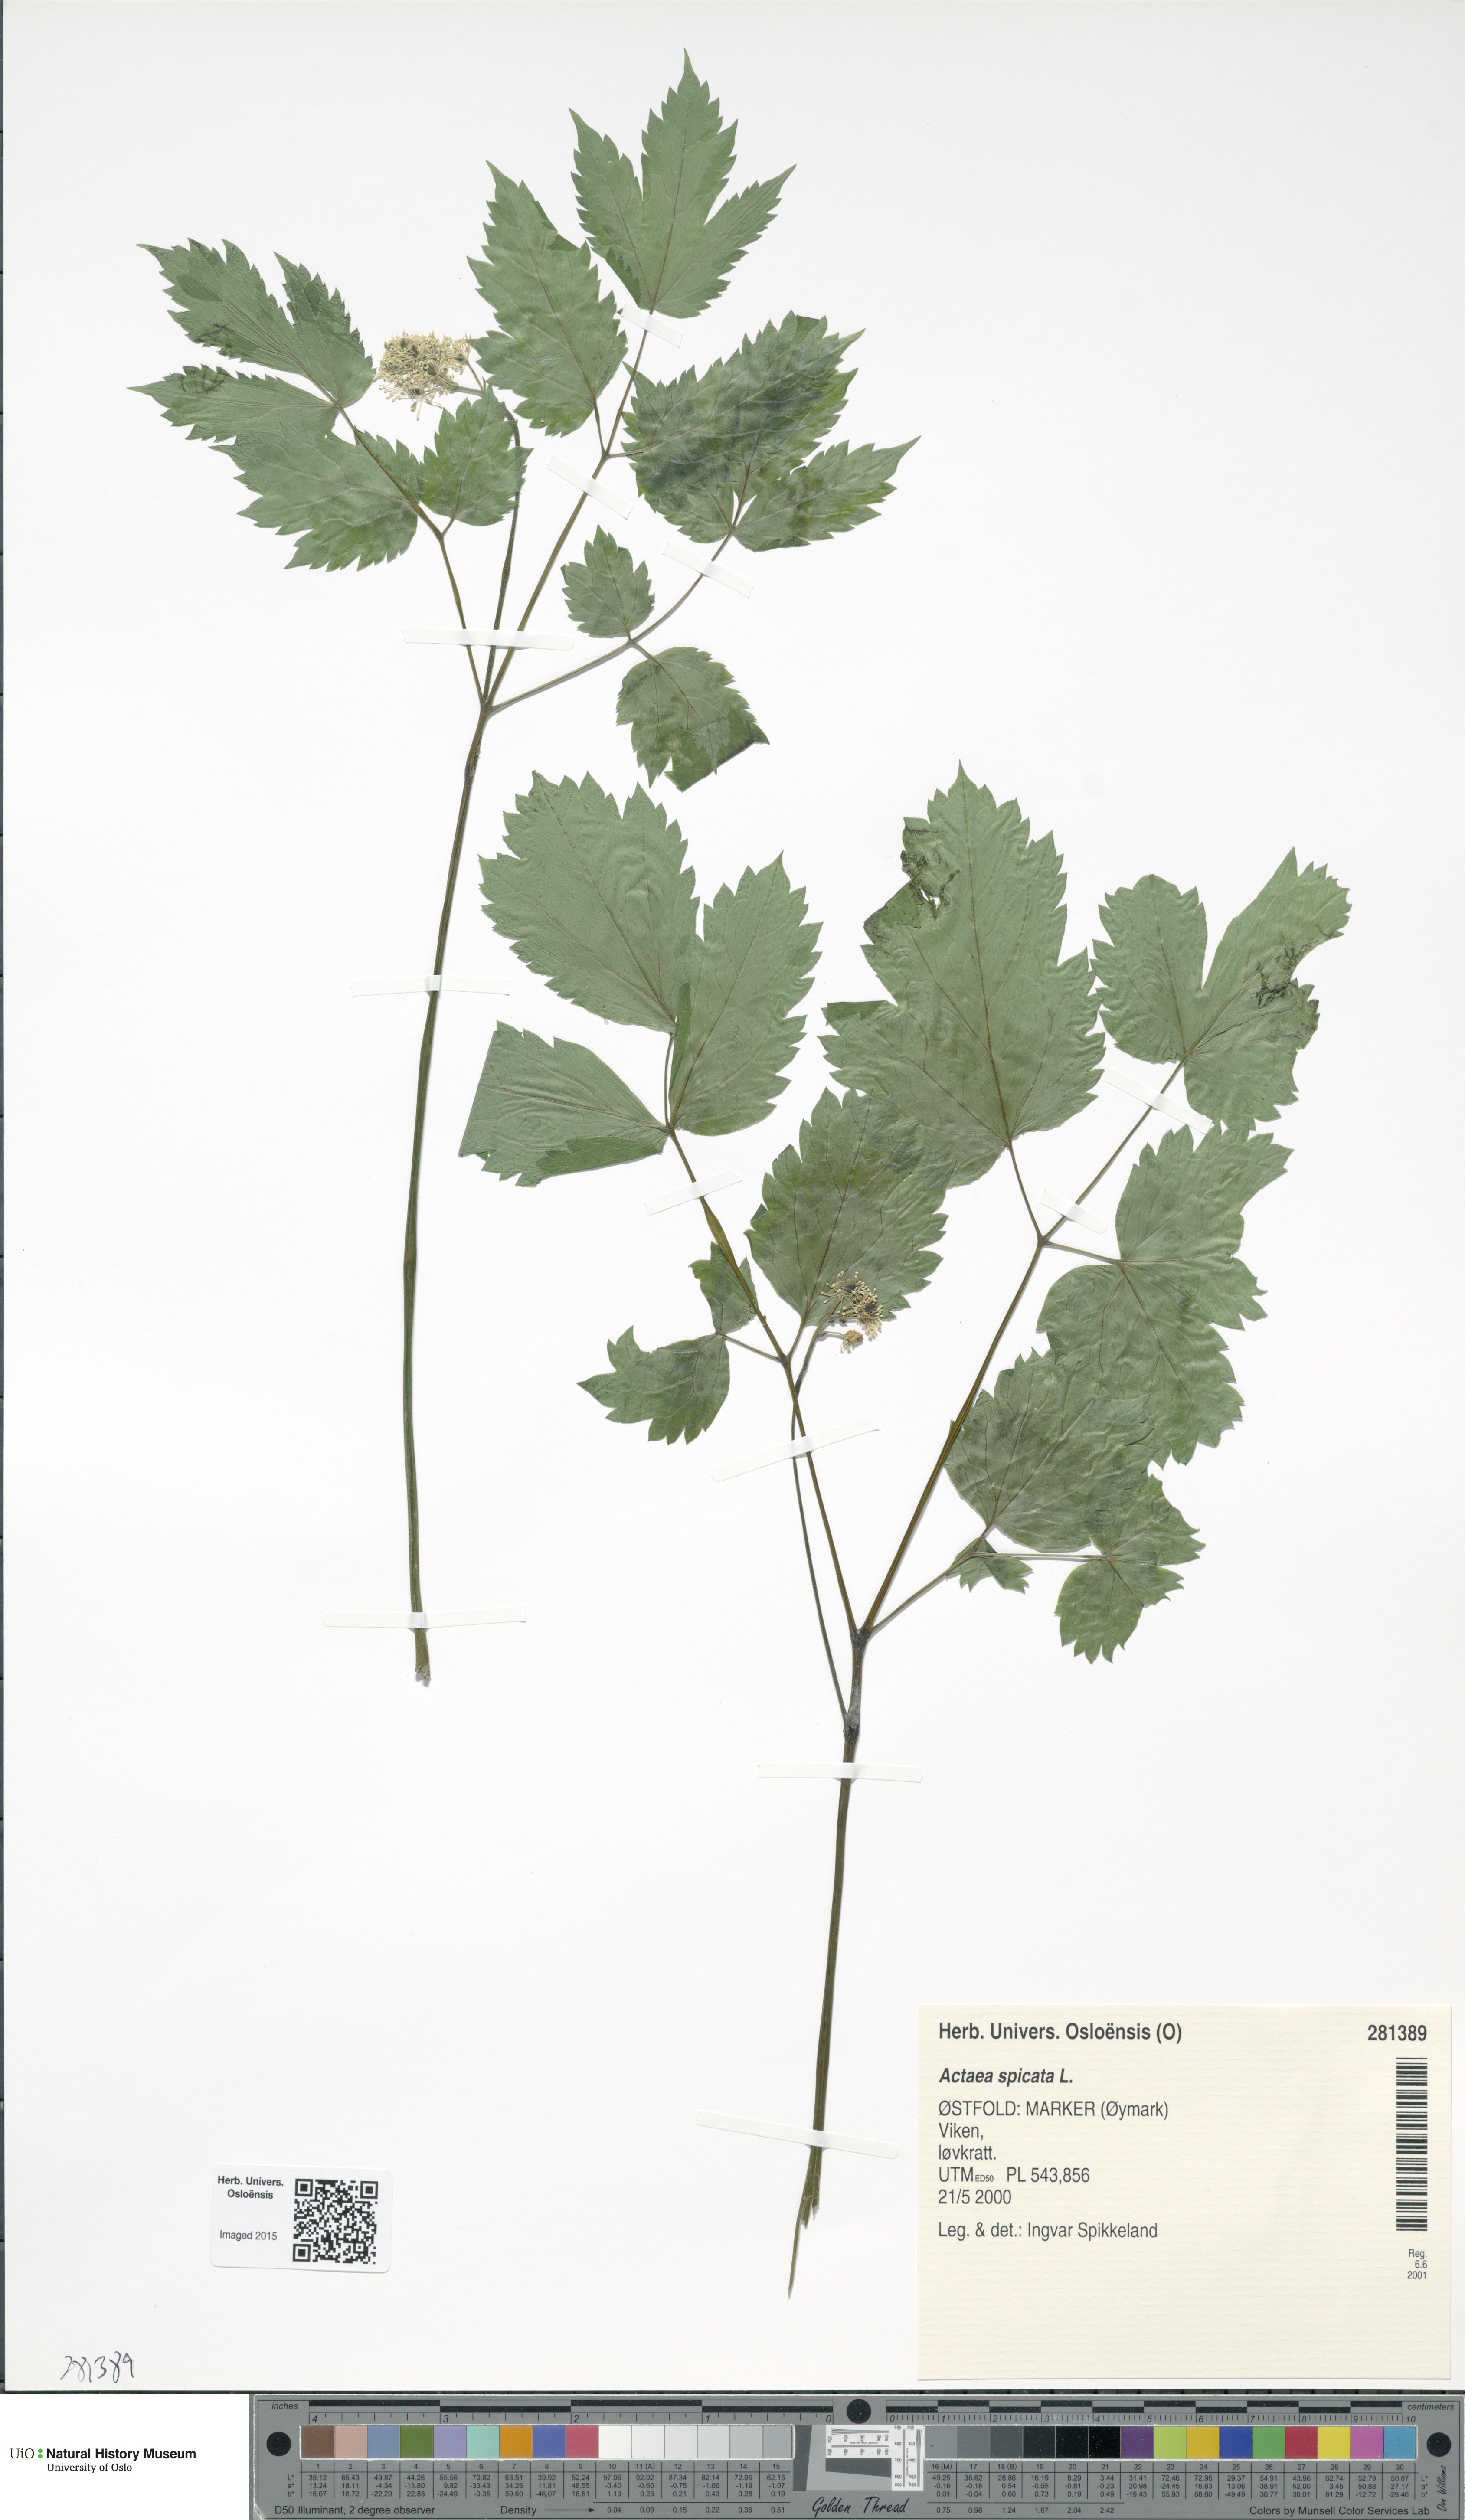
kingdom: Plantae
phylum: Tracheophyta
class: Magnoliopsida
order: Ranunculales
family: Ranunculaceae
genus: Actaea
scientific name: Actaea spicata
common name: Baneberry
